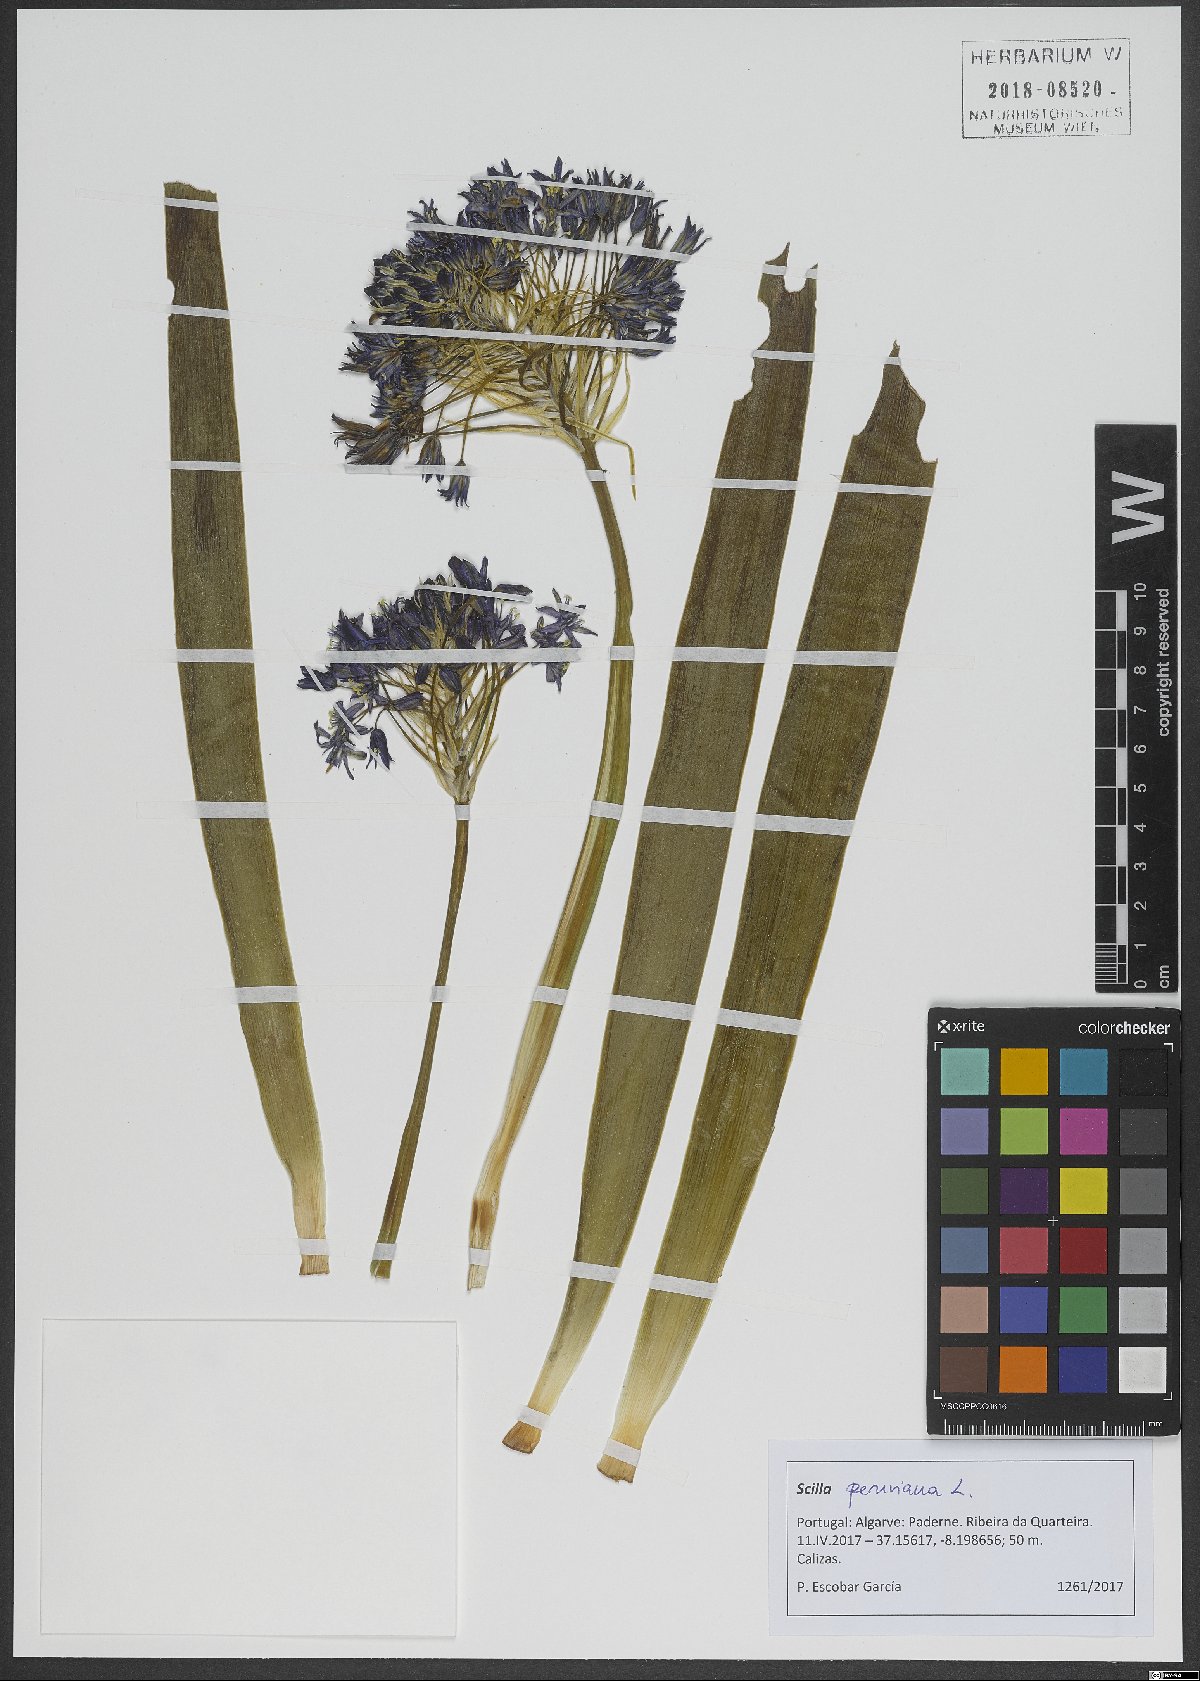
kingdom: Plantae
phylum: Tracheophyta
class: Liliopsida
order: Asparagales
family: Asparagaceae
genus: Scilla
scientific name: Scilla peruviana
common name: Portuguese squill
